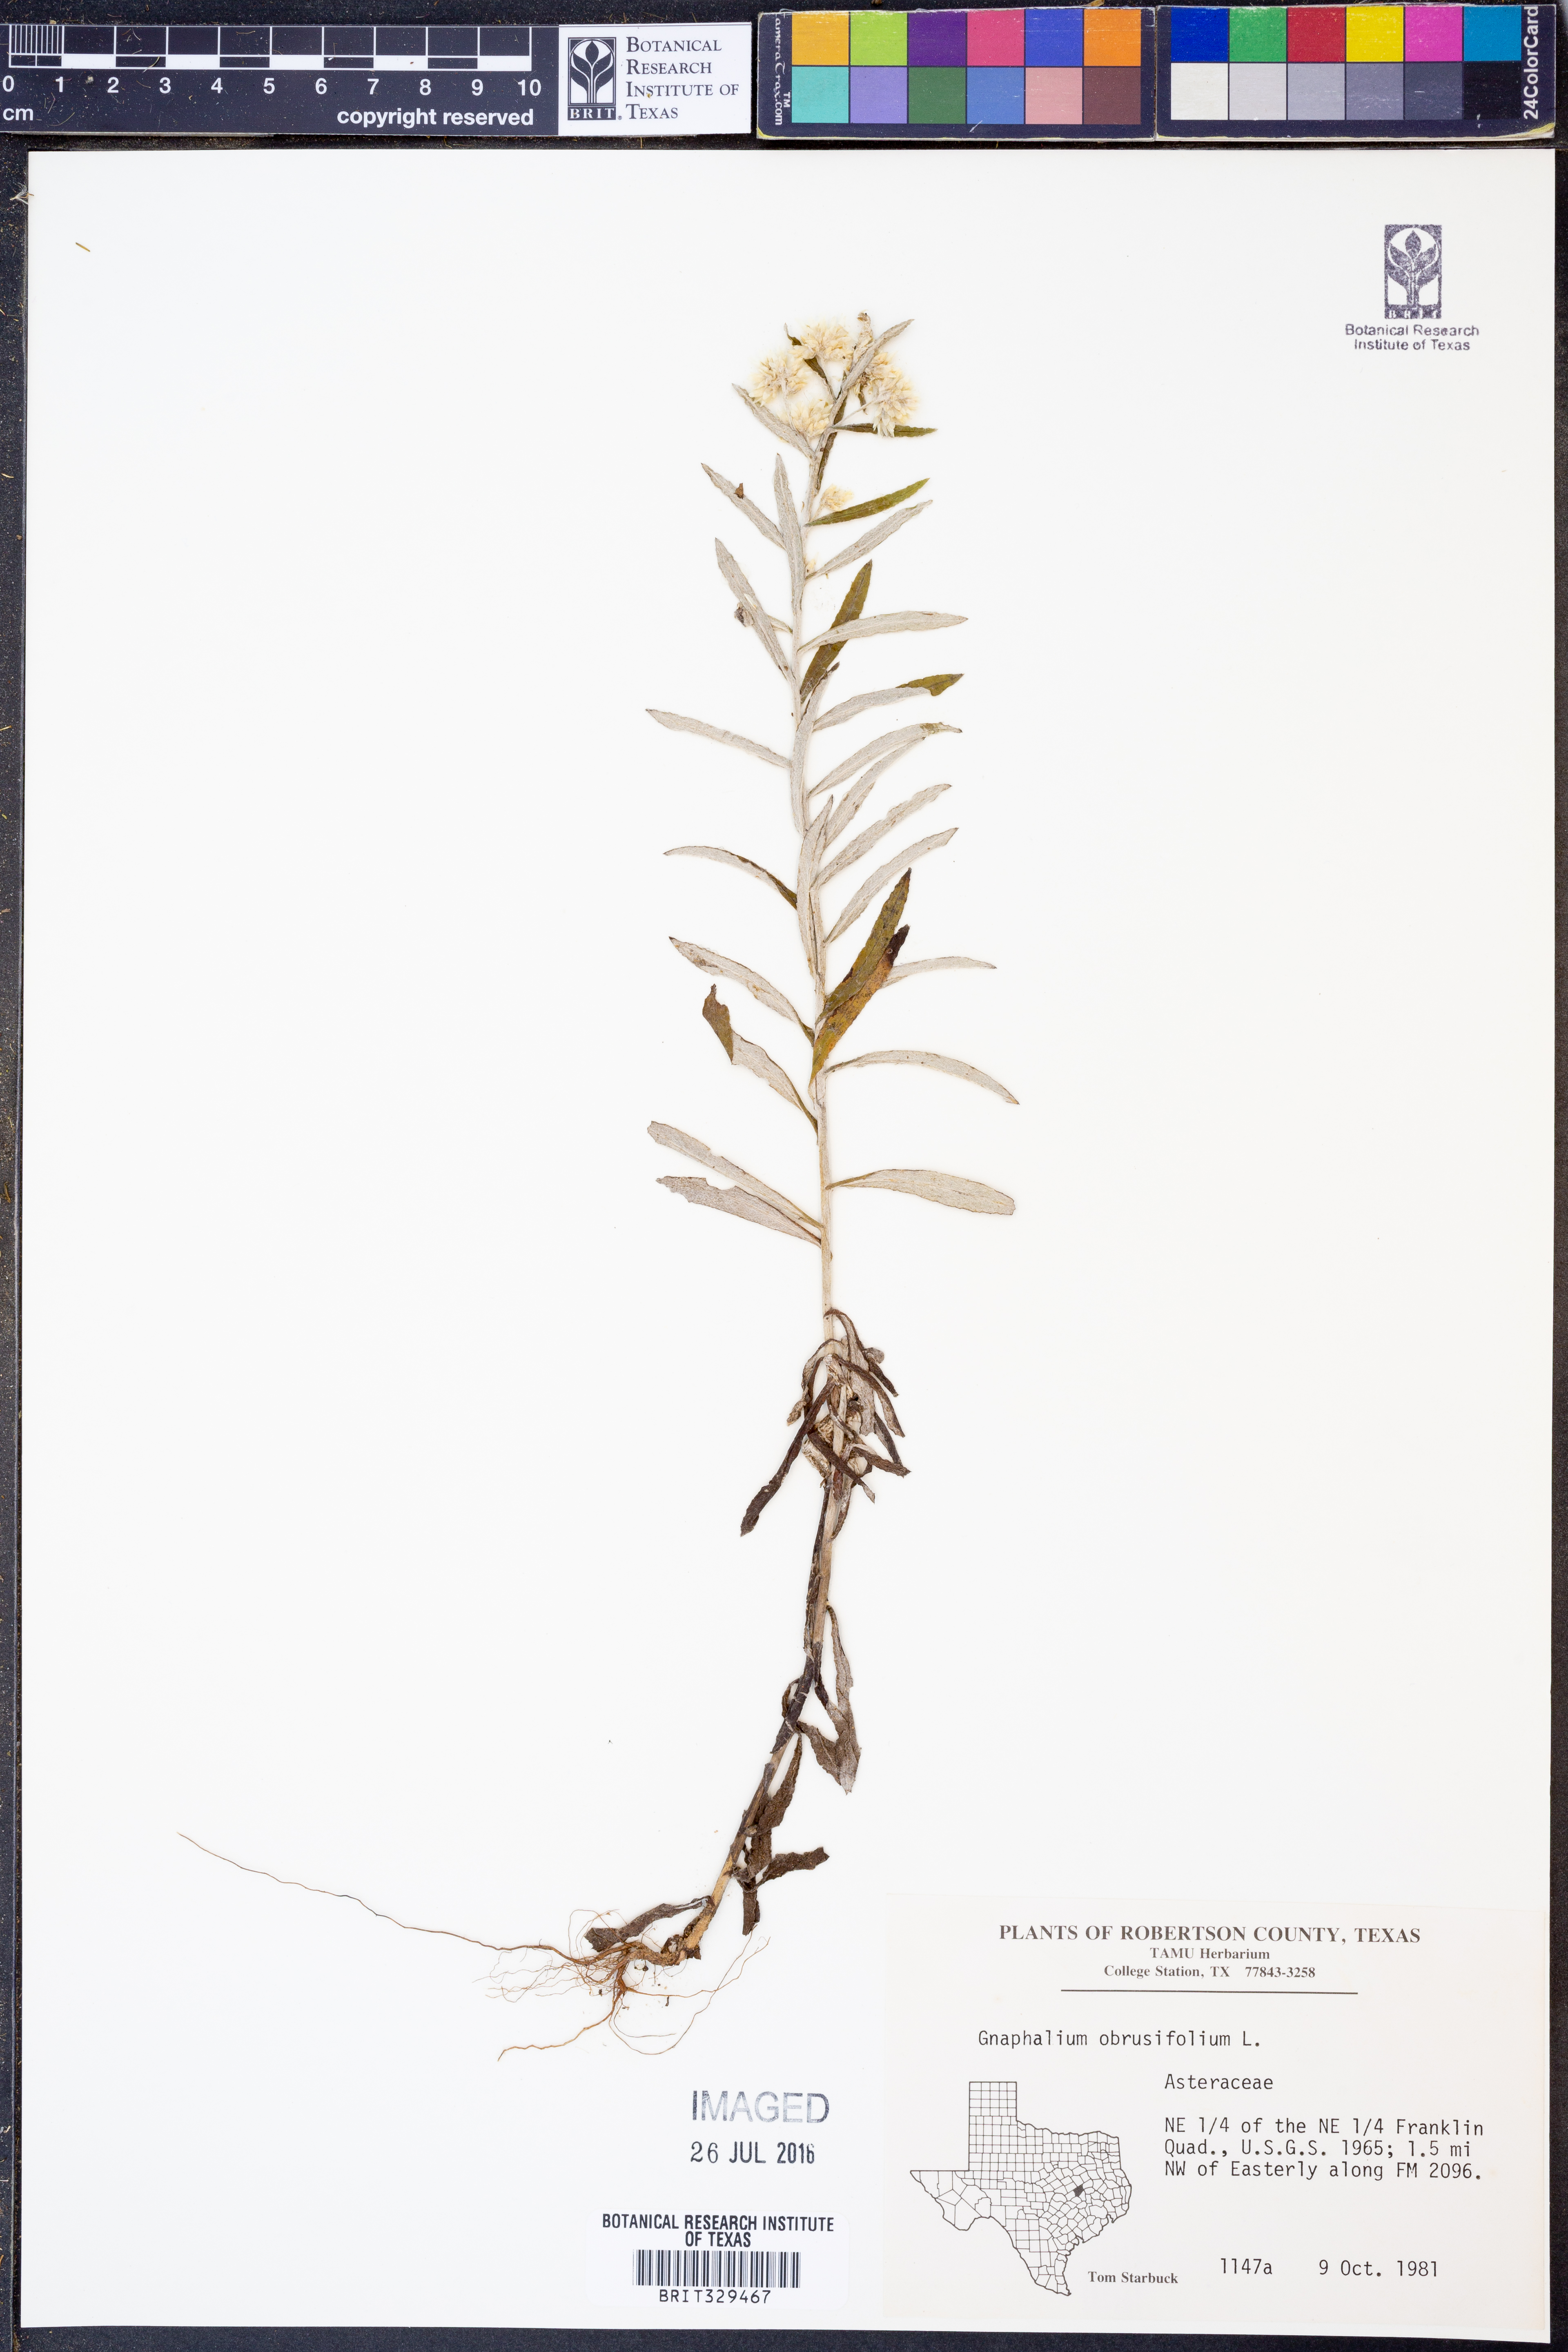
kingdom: Plantae
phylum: Tracheophyta
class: Magnoliopsida
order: Asterales
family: Asteraceae
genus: Pseudognaphalium
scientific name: Pseudognaphalium obtusifolium
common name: Eastern rabbit-tobacco
